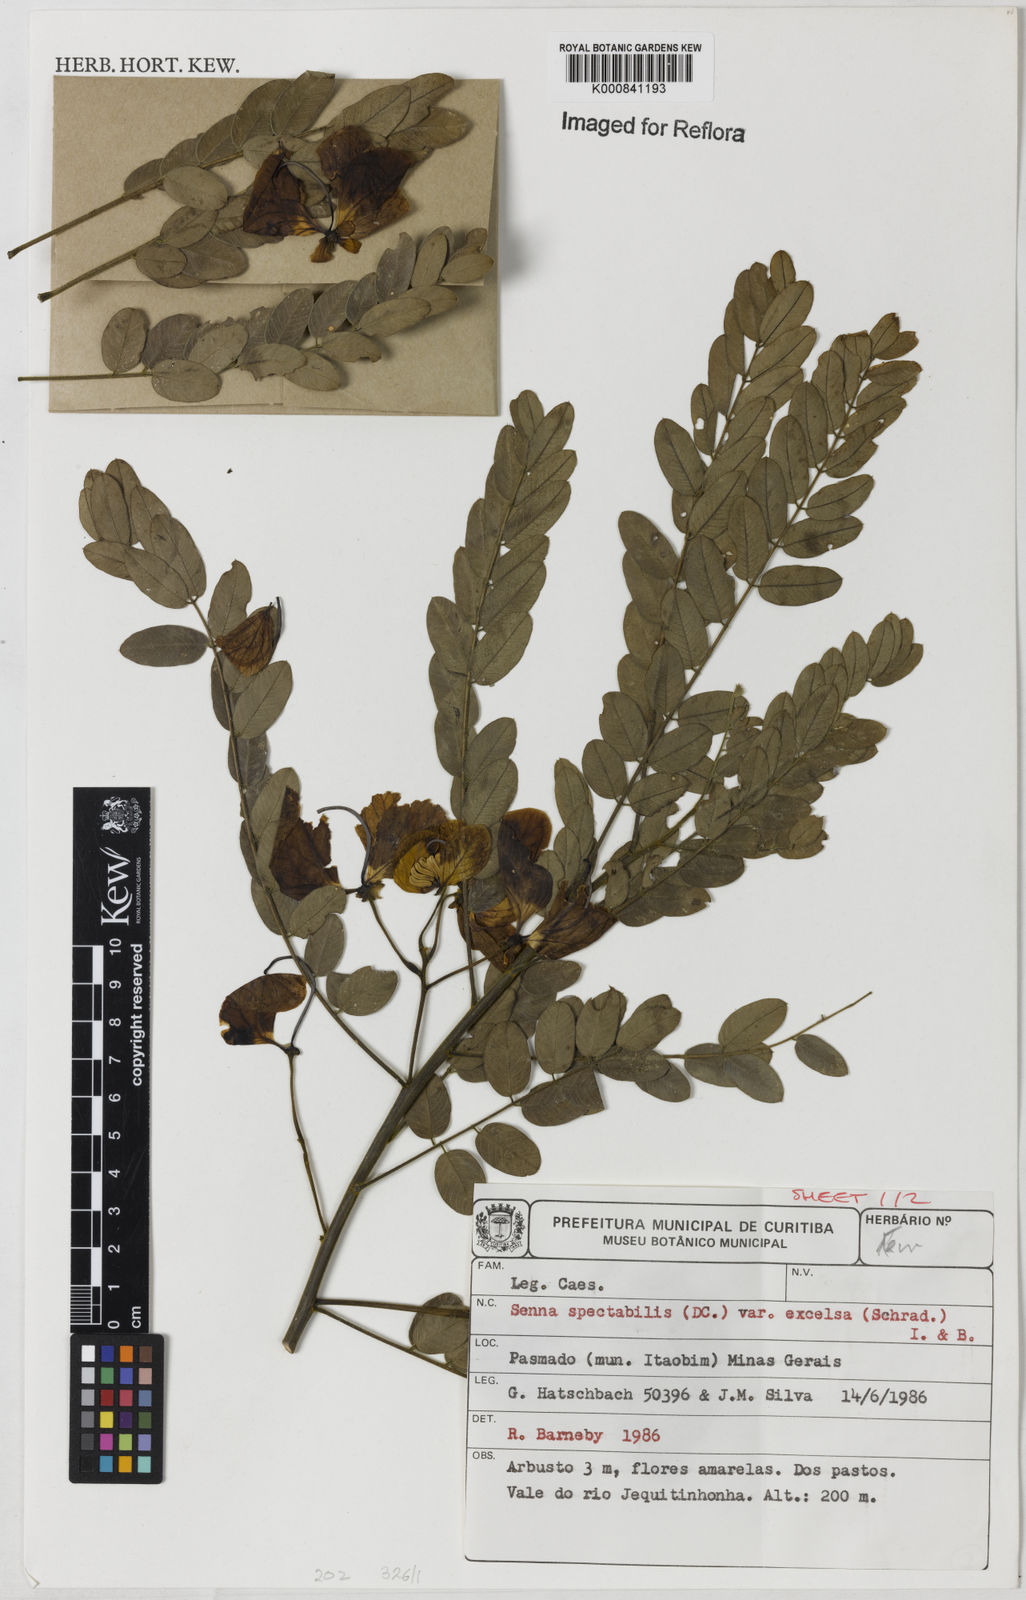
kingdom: Plantae
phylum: Tracheophyta
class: Magnoliopsida
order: Fabales
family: Fabaceae
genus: Senna
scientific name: Senna spectabilis
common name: Casia amarilla
